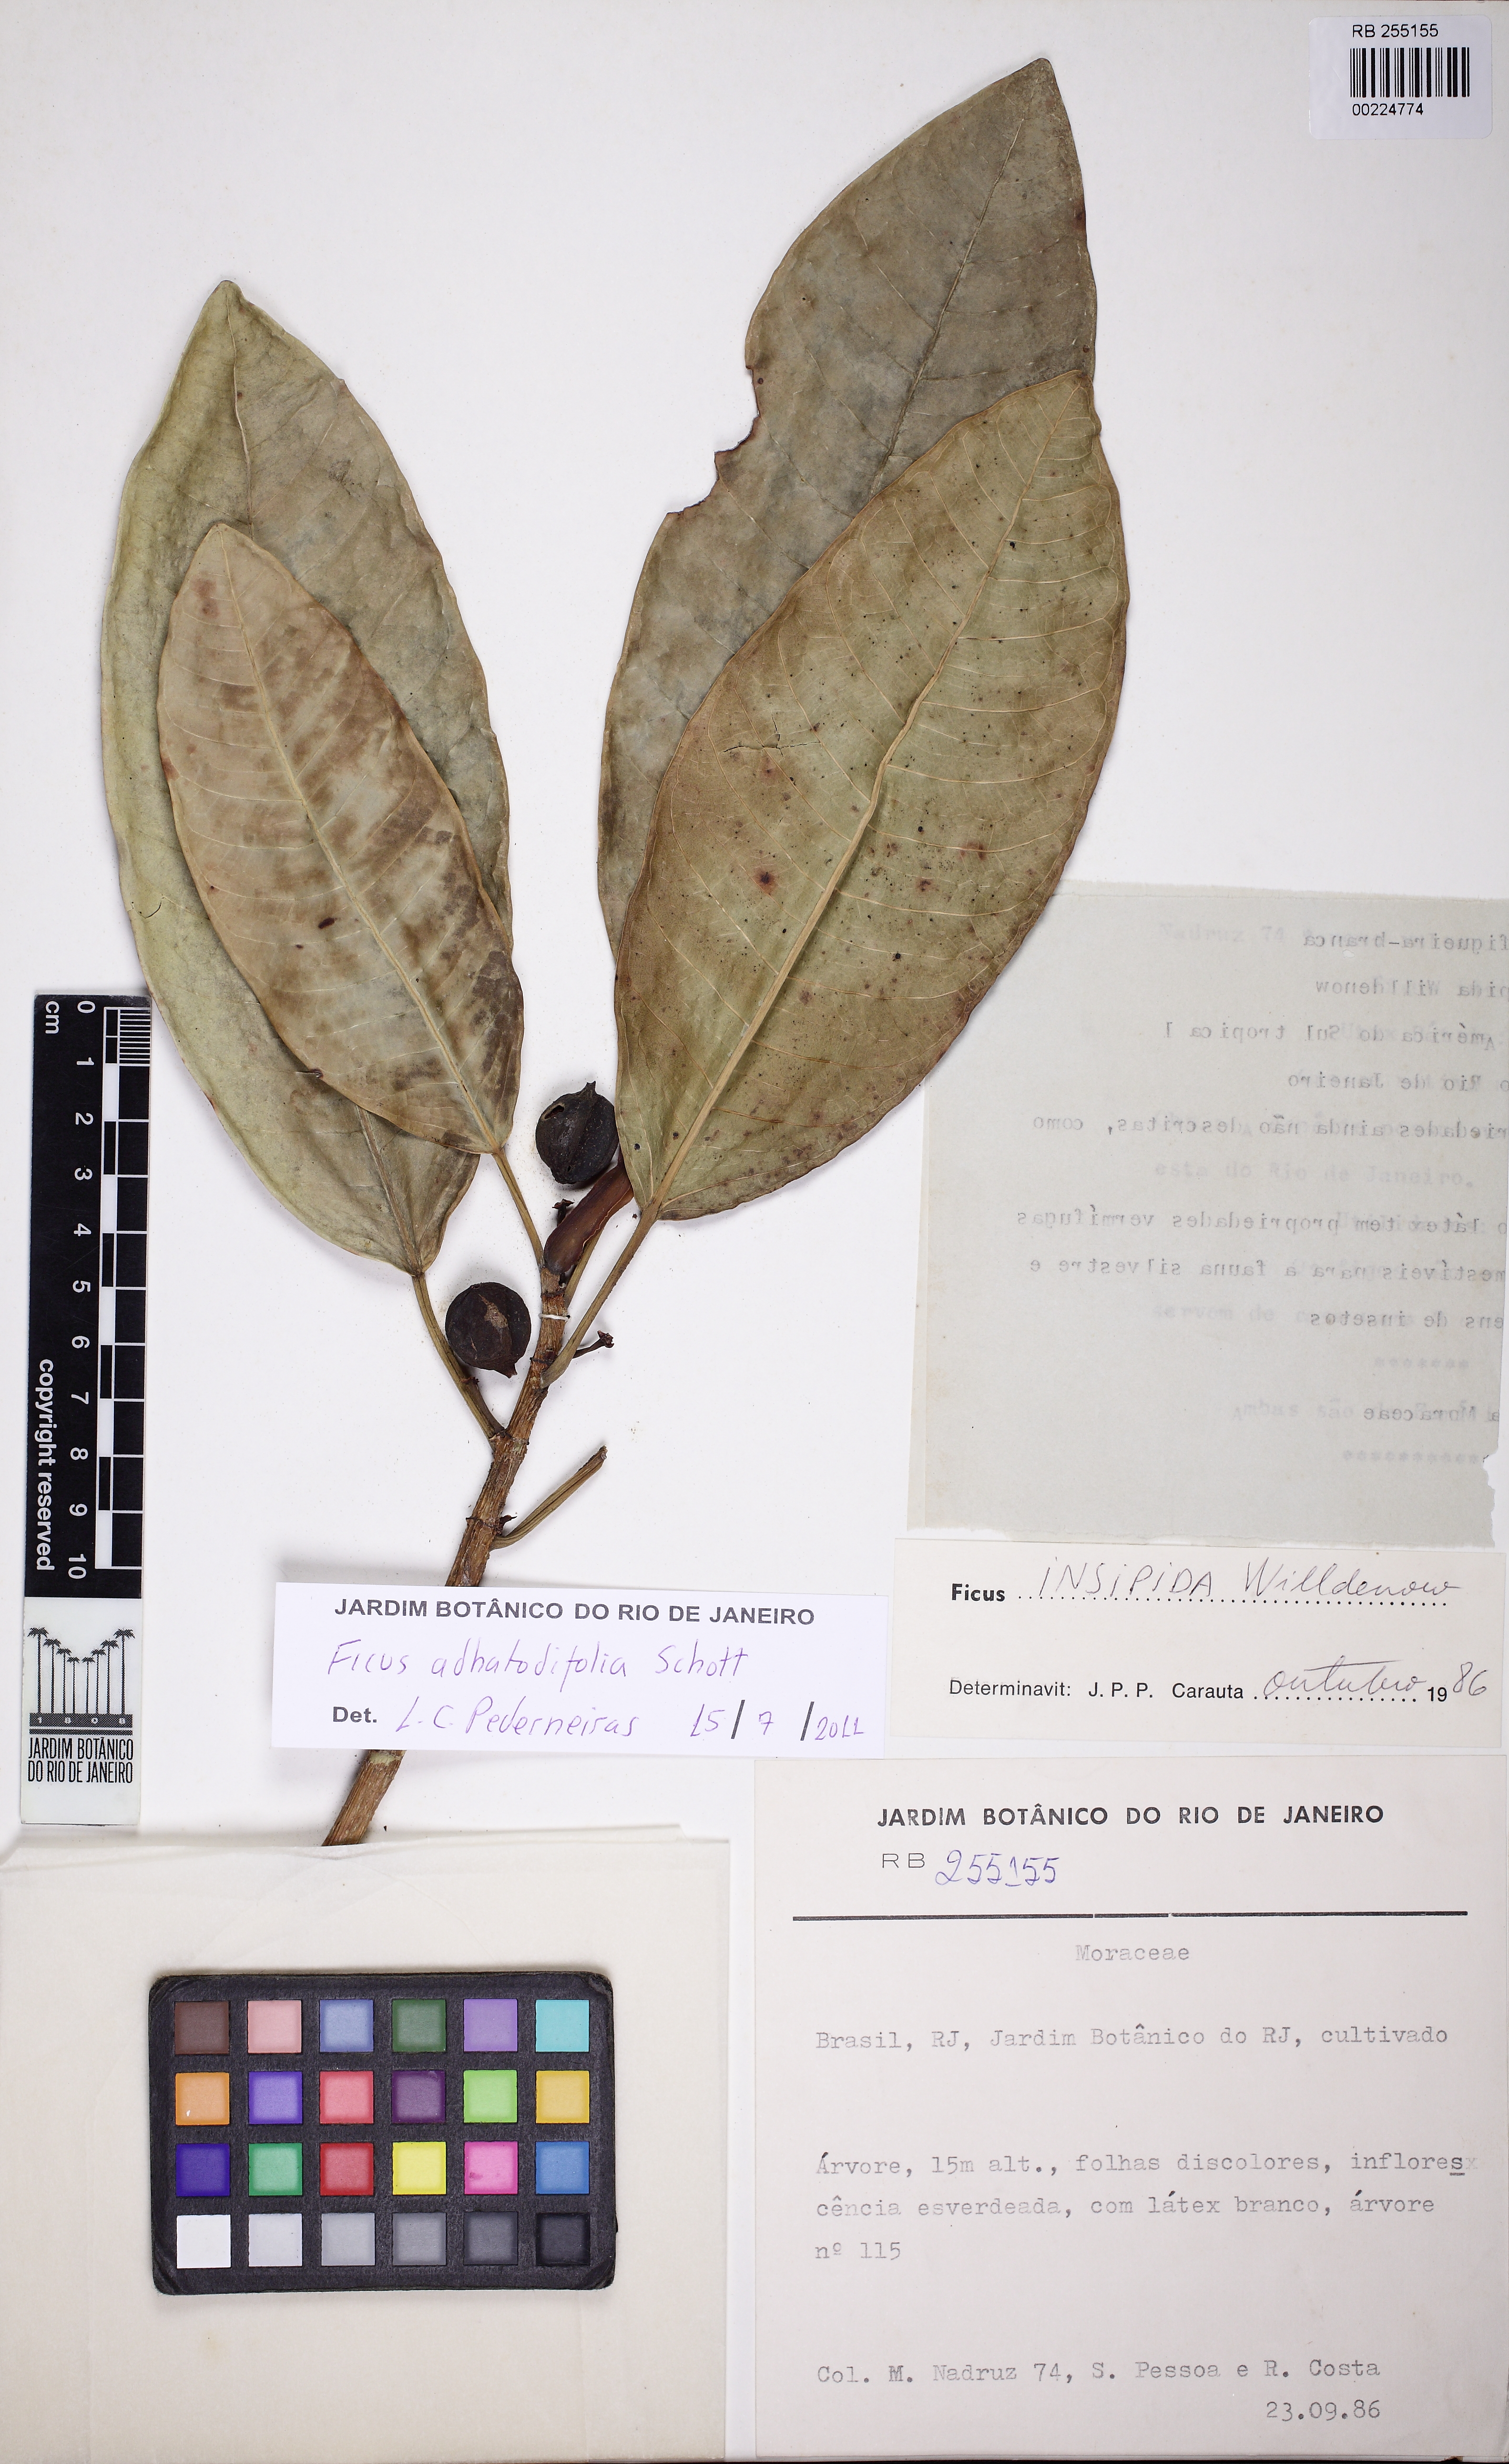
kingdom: Plantae
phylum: Tracheophyta
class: Magnoliopsida
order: Rosales
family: Moraceae
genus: Ficus
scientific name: Ficus adhatodifolia
